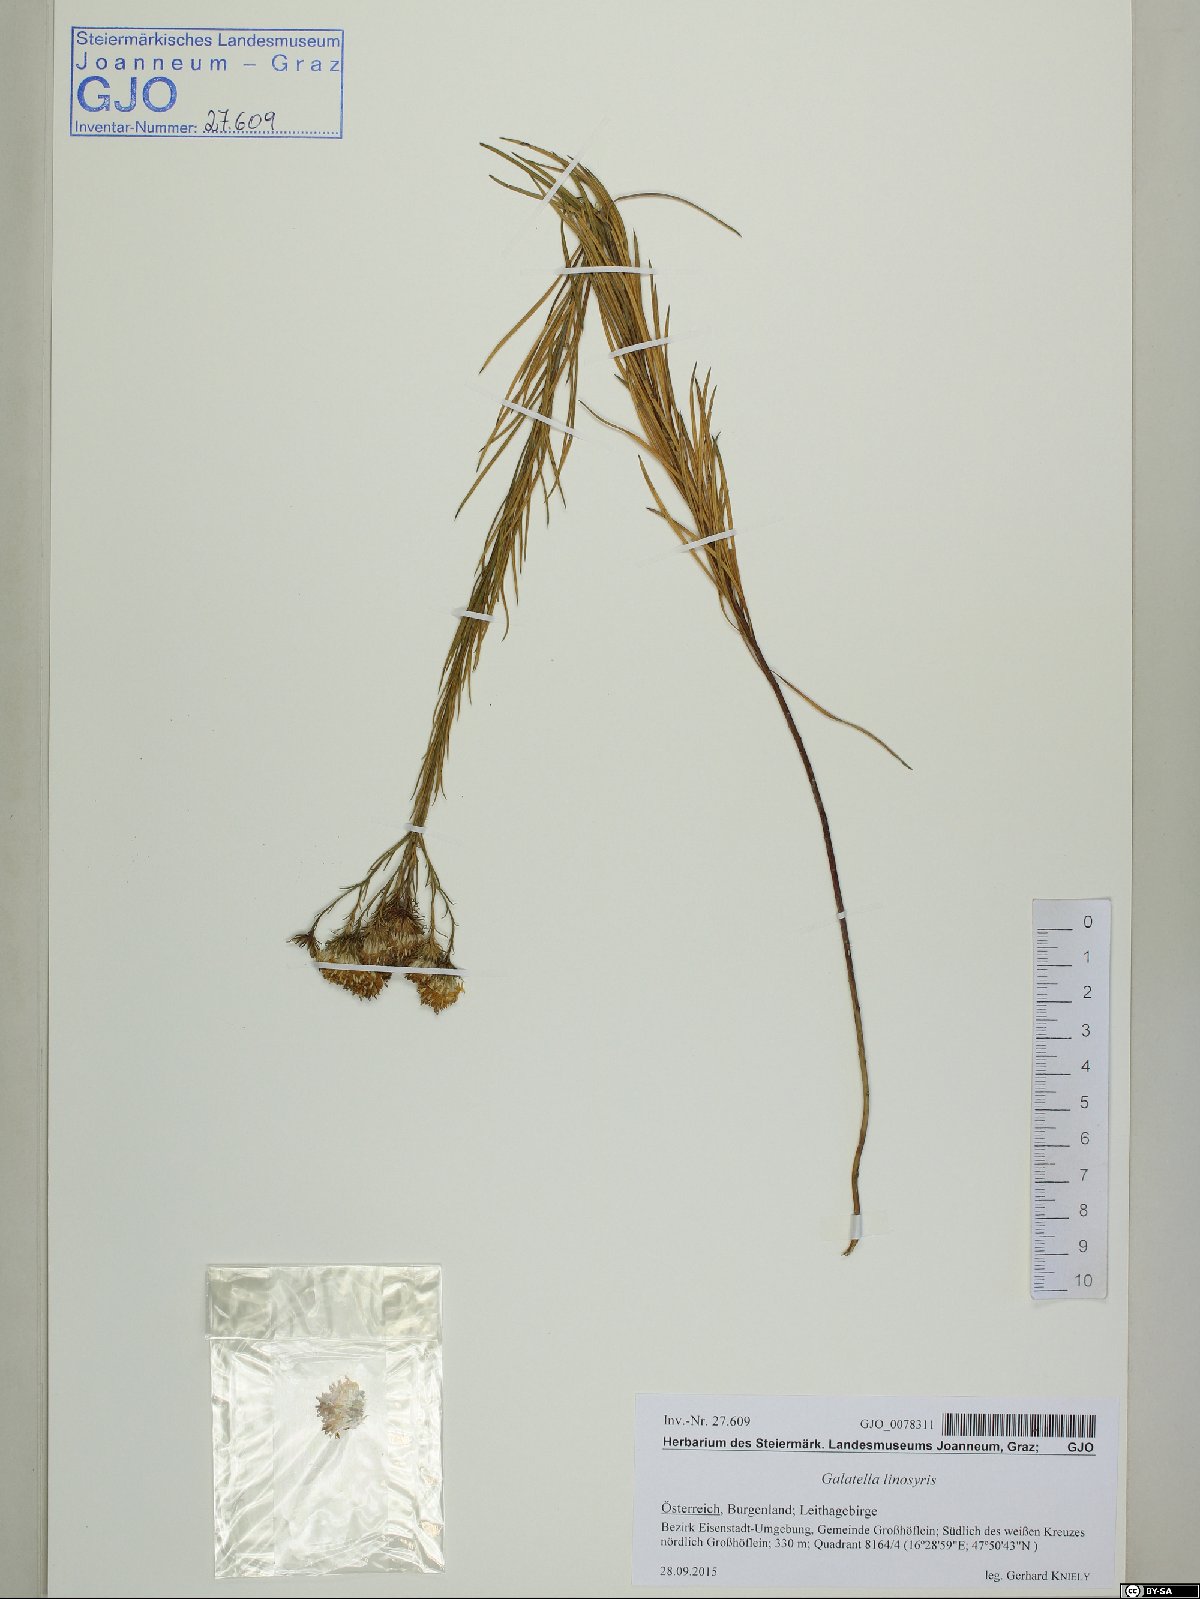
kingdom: Plantae
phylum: Tracheophyta
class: Magnoliopsida
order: Asterales
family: Asteraceae
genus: Galatella
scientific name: Galatella linosyris
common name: Goldilocks aster
